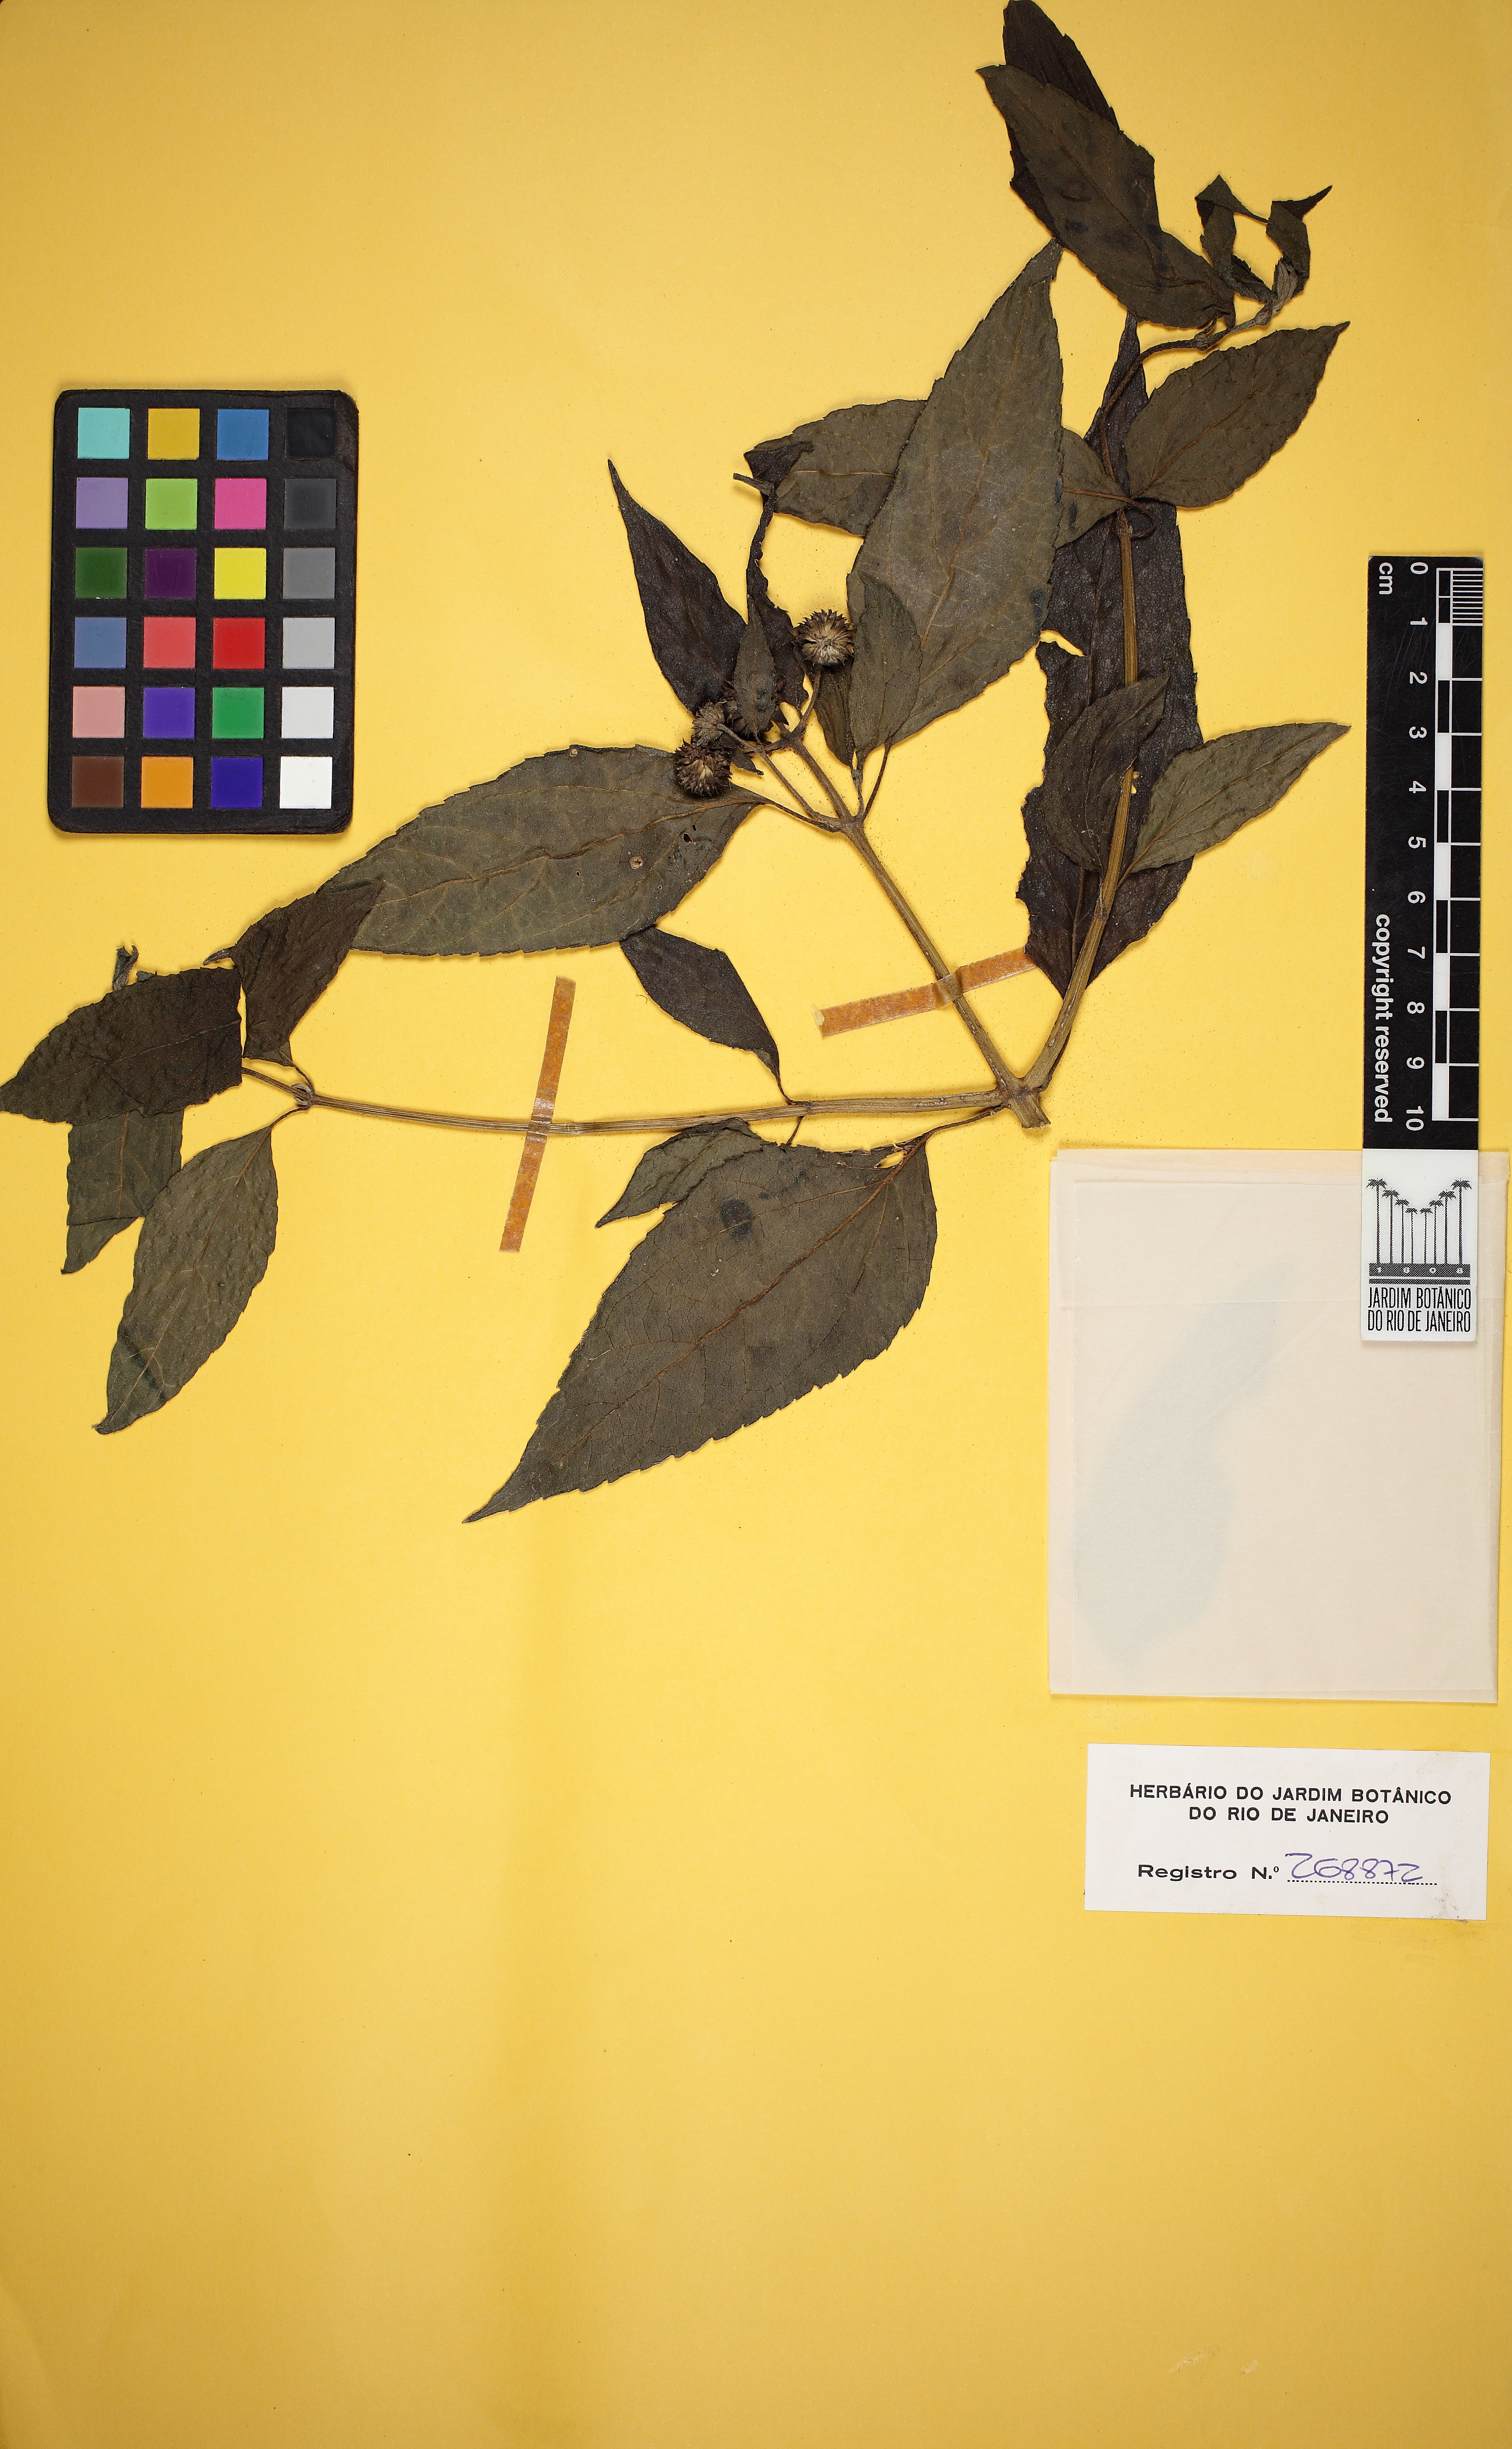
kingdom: Plantae
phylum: Tracheophyta
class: Magnoliopsida
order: Asterales
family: Asteraceae
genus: Tilesia
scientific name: Tilesia baccata
